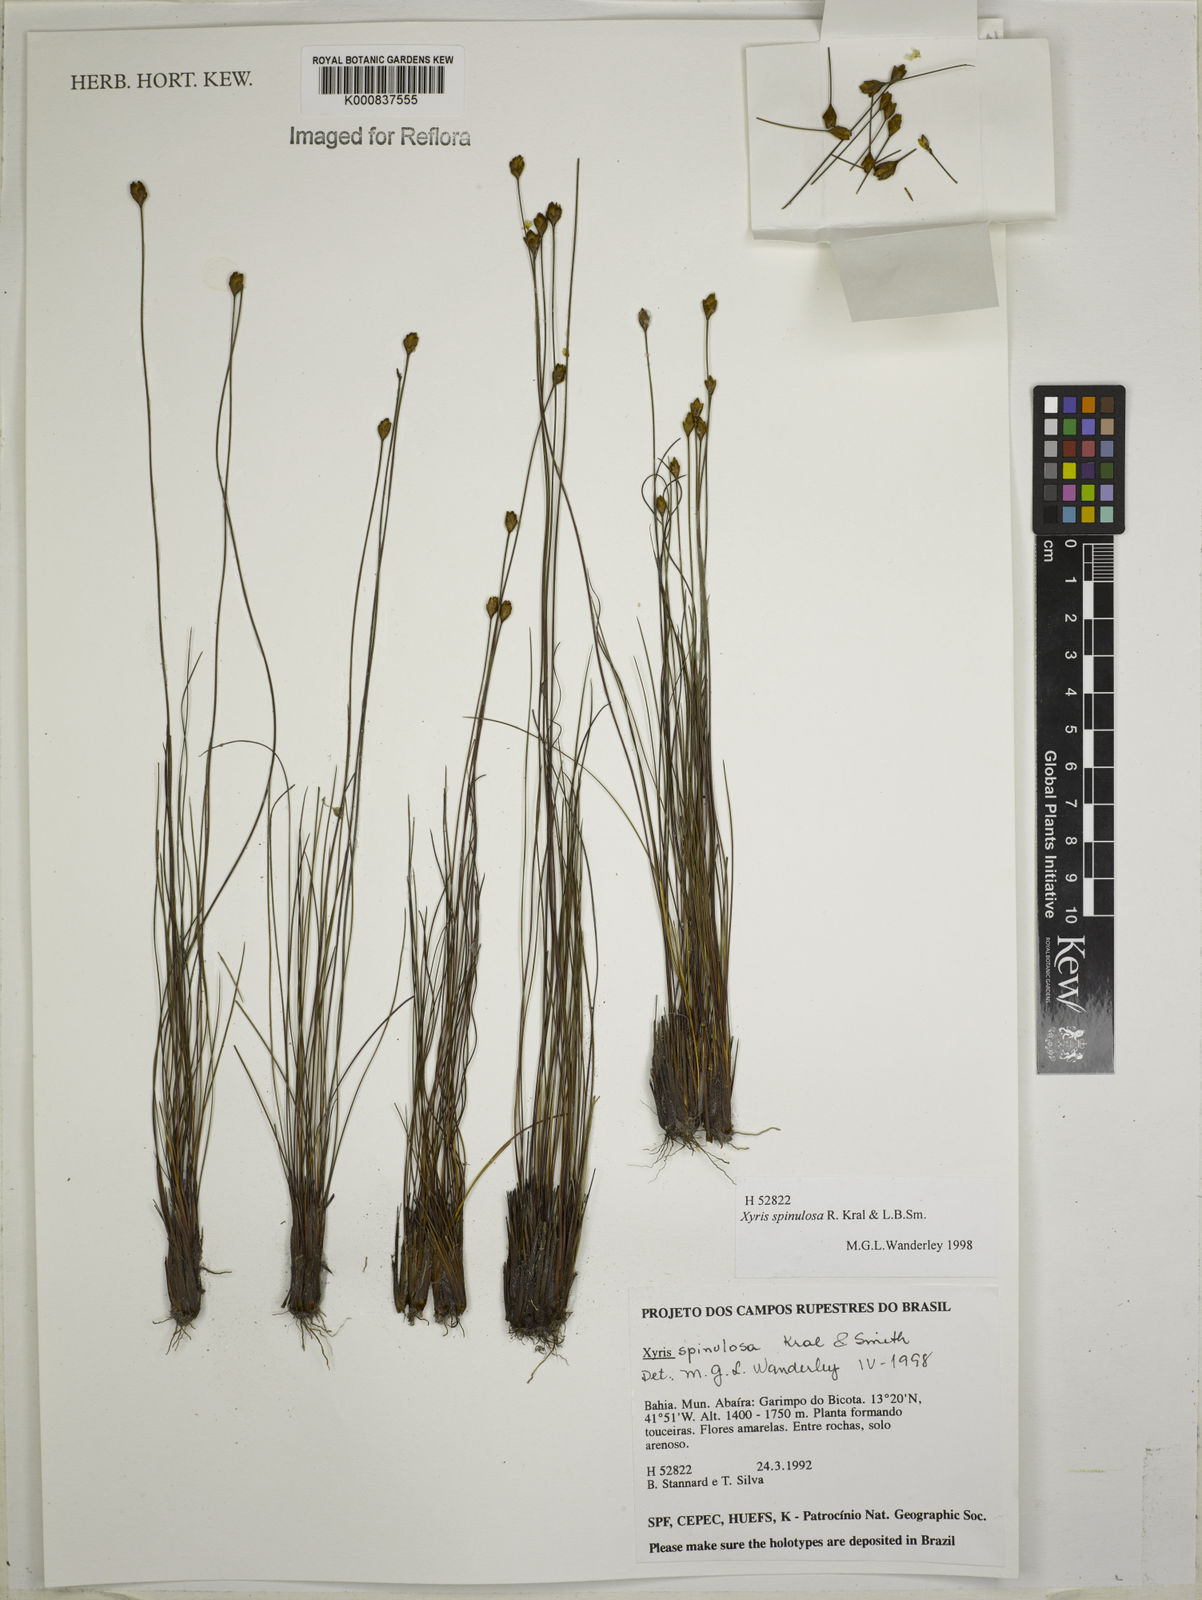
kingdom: Plantae
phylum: Tracheophyta
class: Liliopsida
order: Poales
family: Xyridaceae
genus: Xyris
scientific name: Xyris spinulosa
